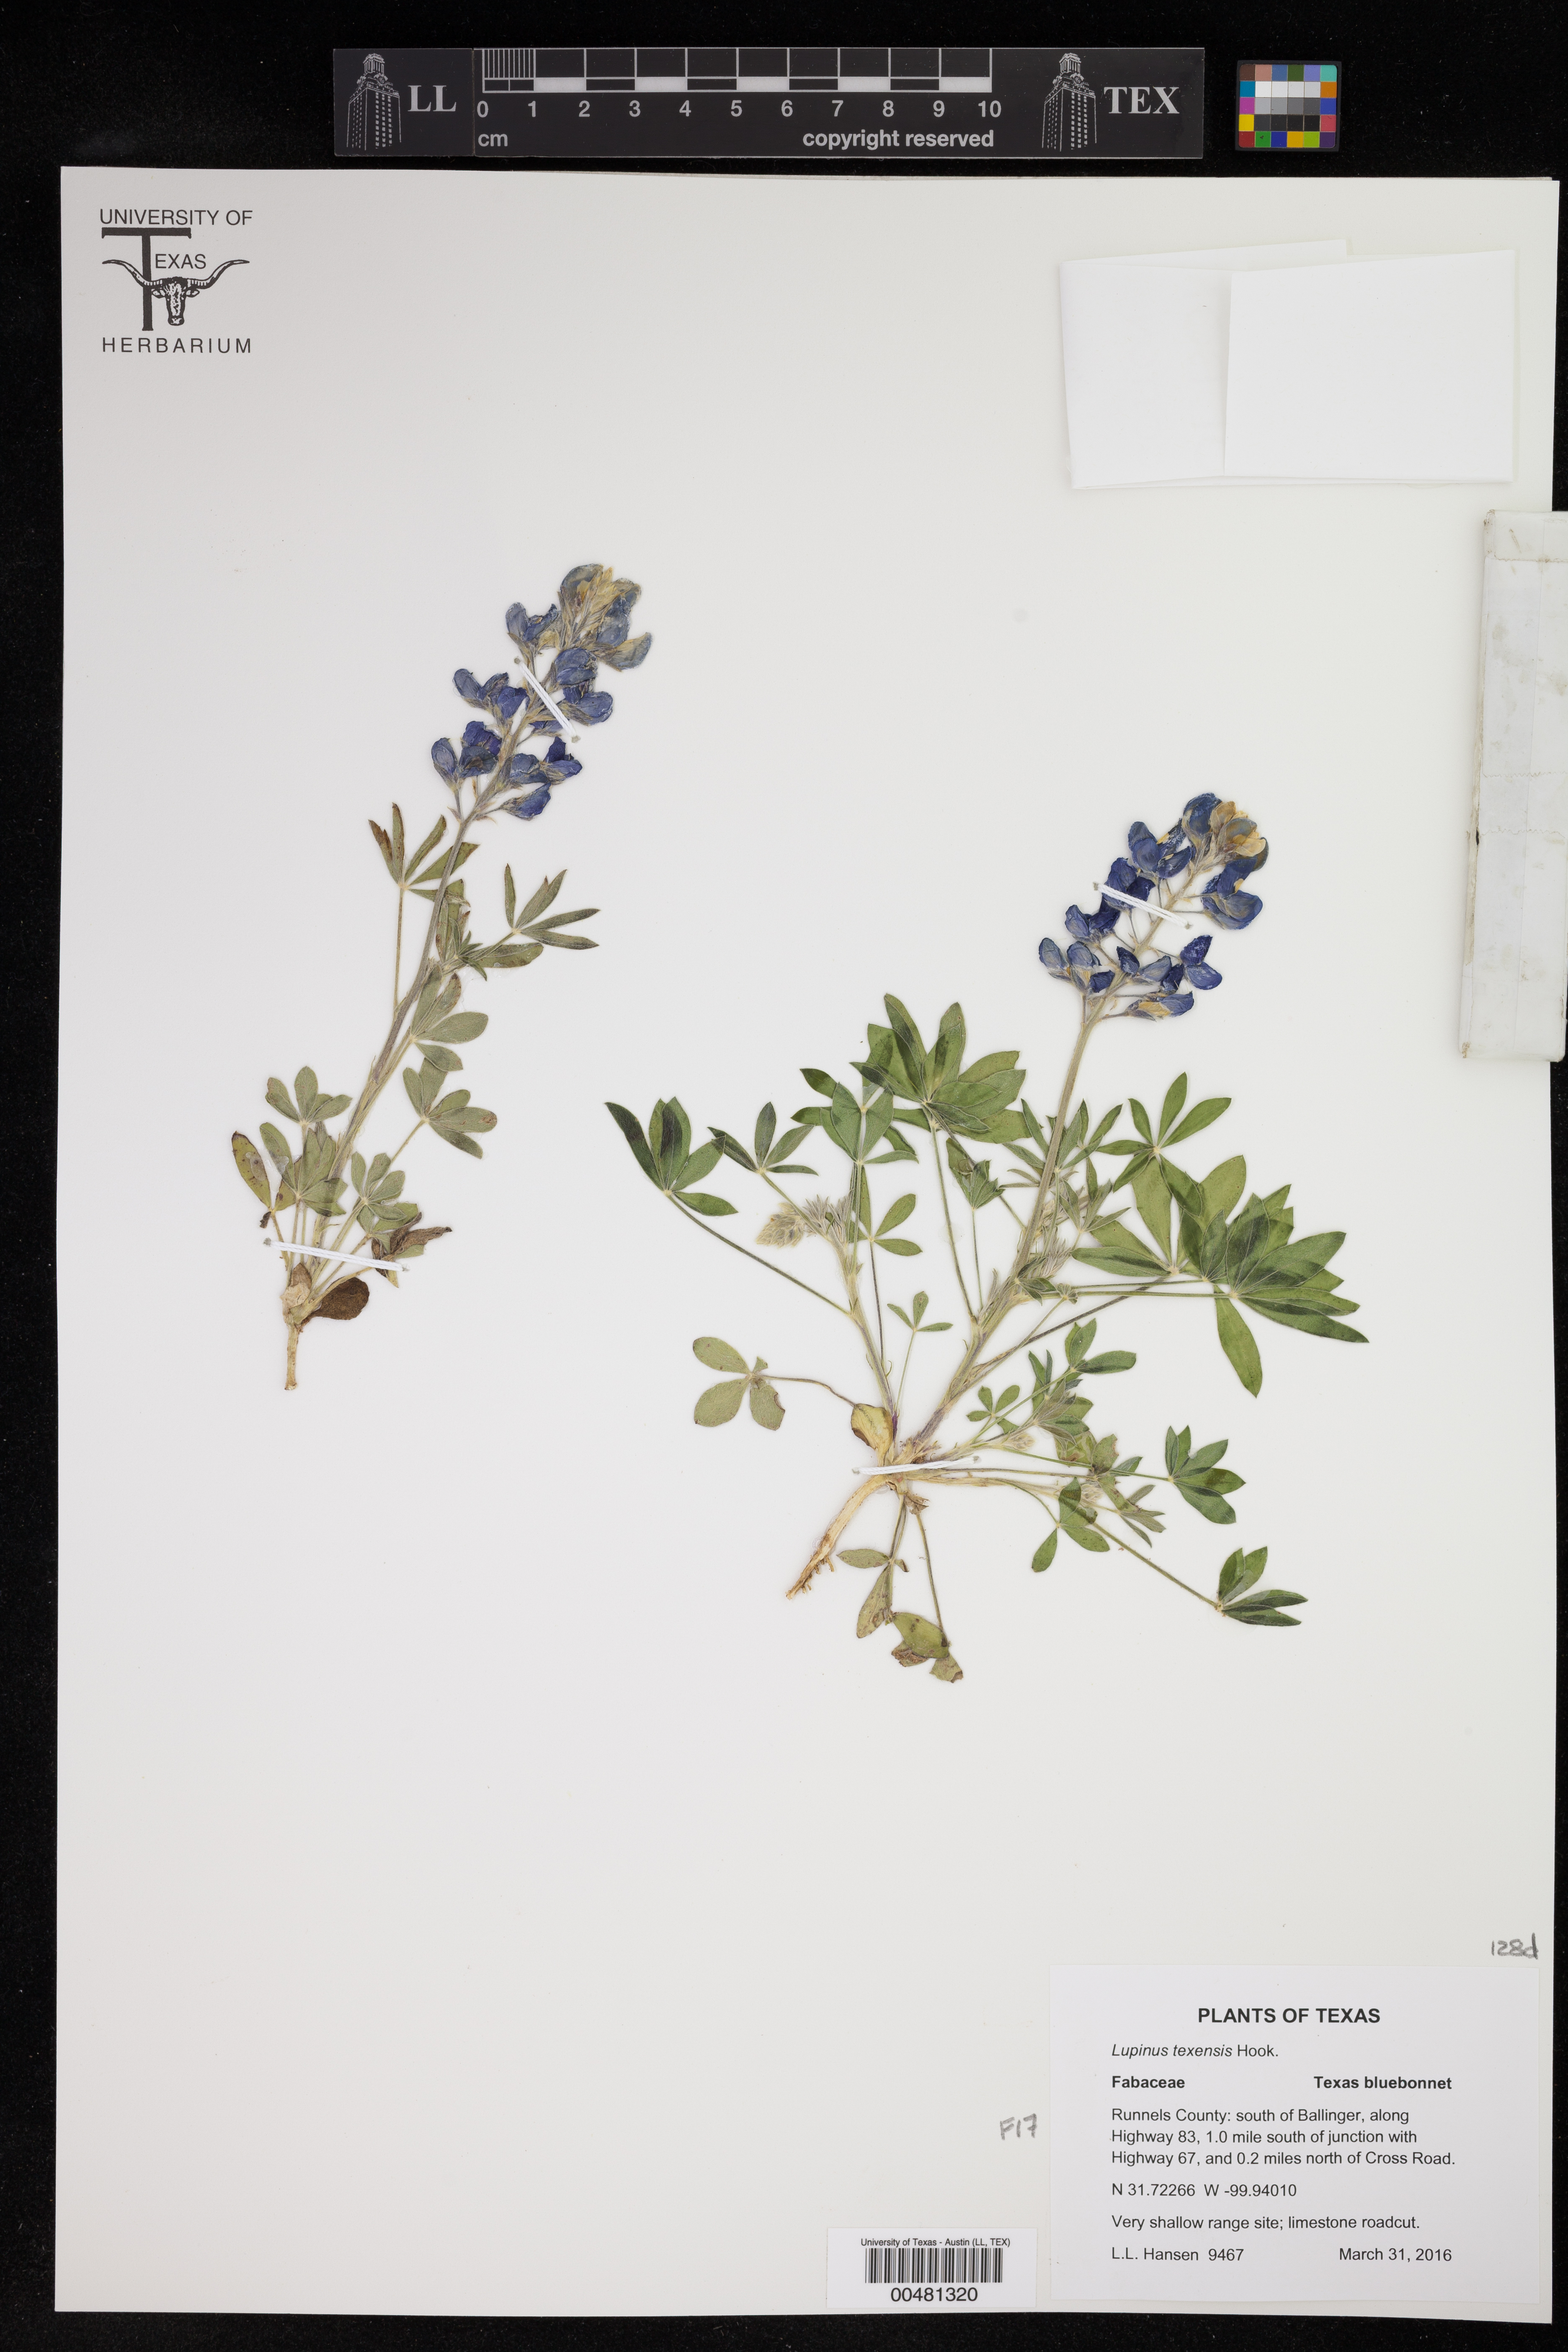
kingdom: Plantae
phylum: Tracheophyta
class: Magnoliopsida
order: Fabales
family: Fabaceae
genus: Lupinus
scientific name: Lupinus texensis
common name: Texas bluebonnet
